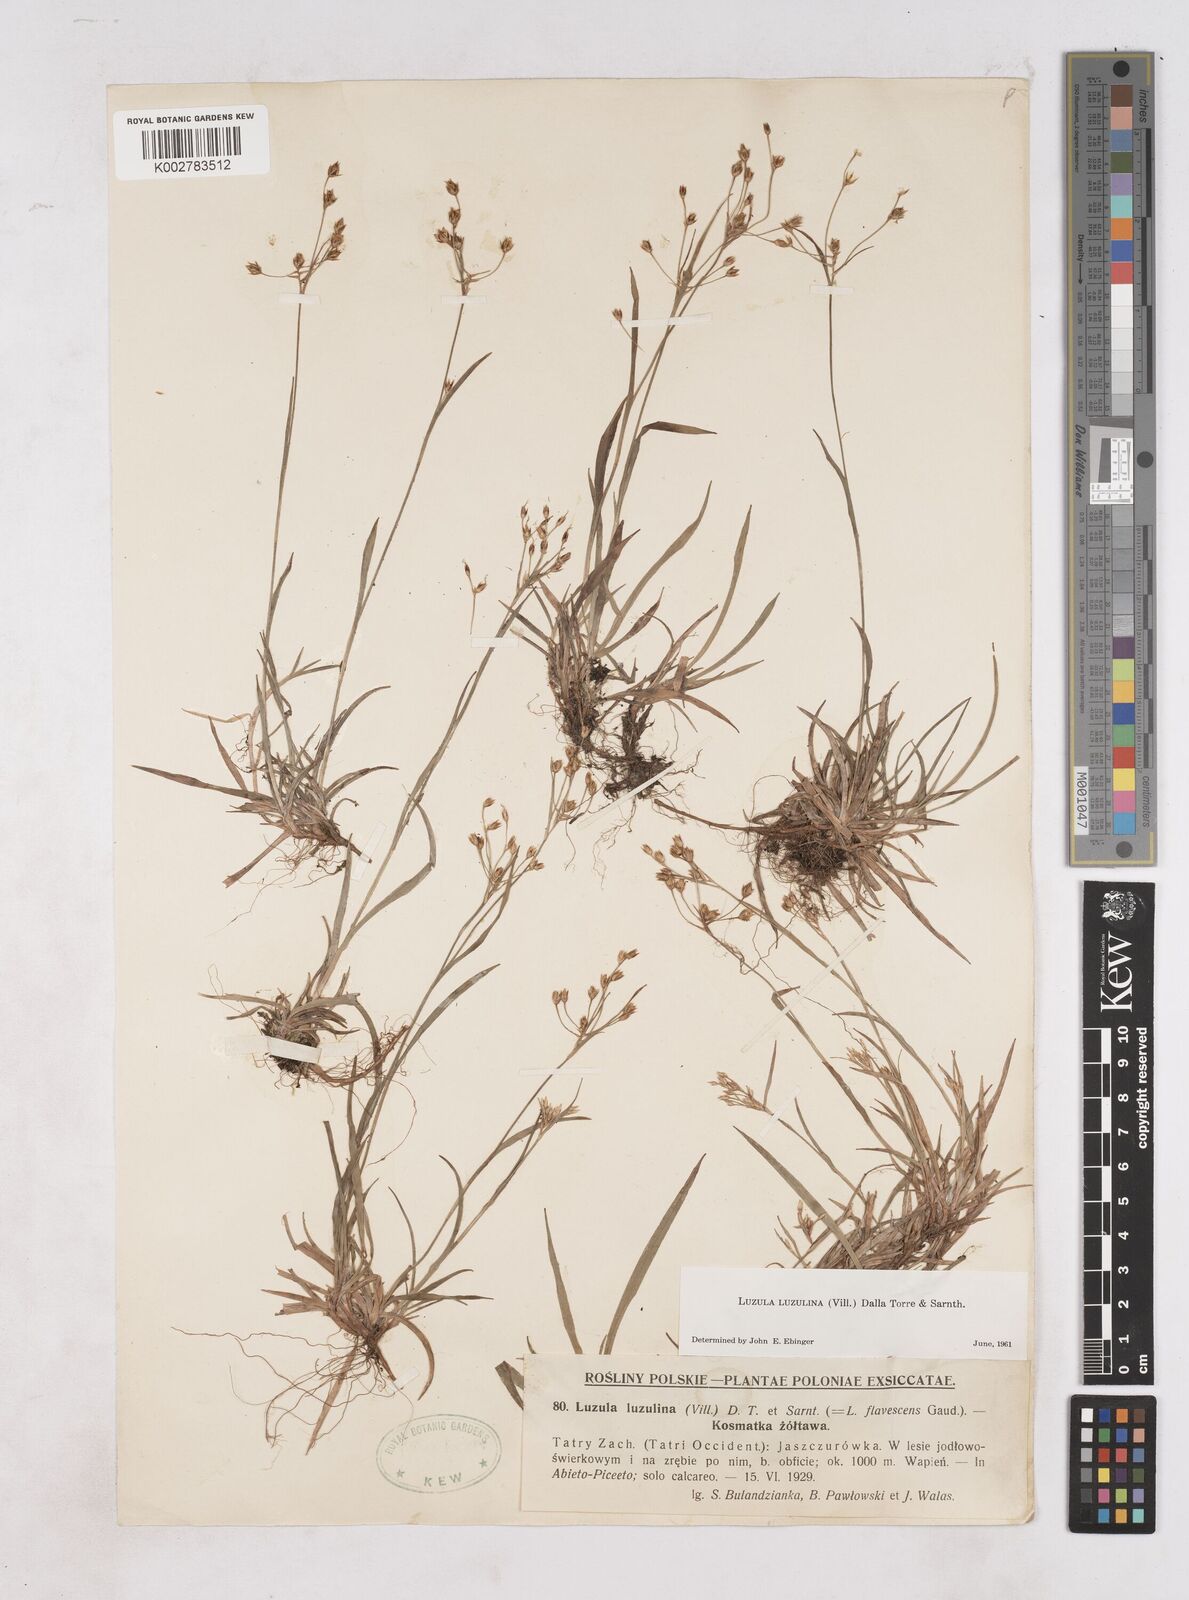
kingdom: Plantae
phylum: Tracheophyta
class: Liliopsida
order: Poales
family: Juncaceae
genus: Luzula
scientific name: Luzula luzulina
